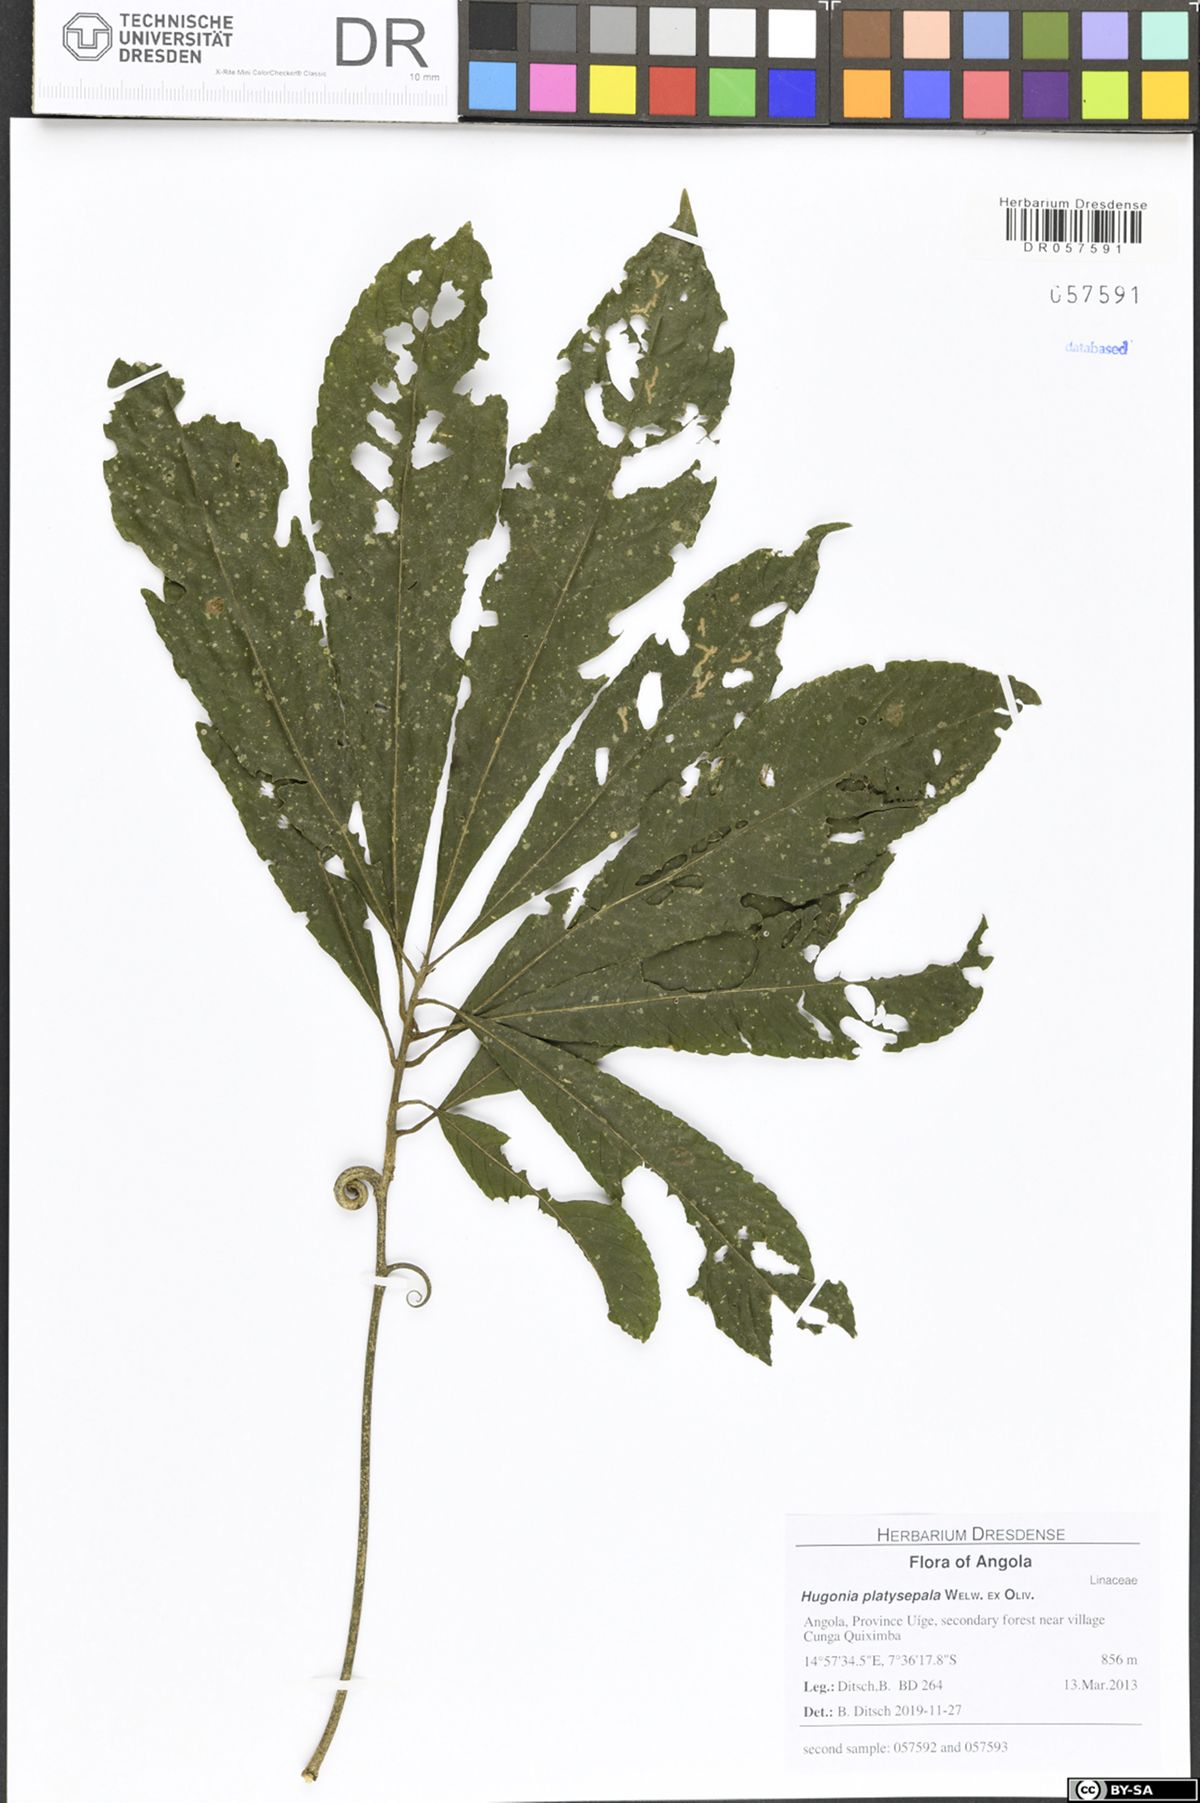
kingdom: Plantae
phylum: Tracheophyta
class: Magnoliopsida
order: Malpighiales
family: Linaceae
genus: Hugonia
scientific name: Hugonia platysepala
